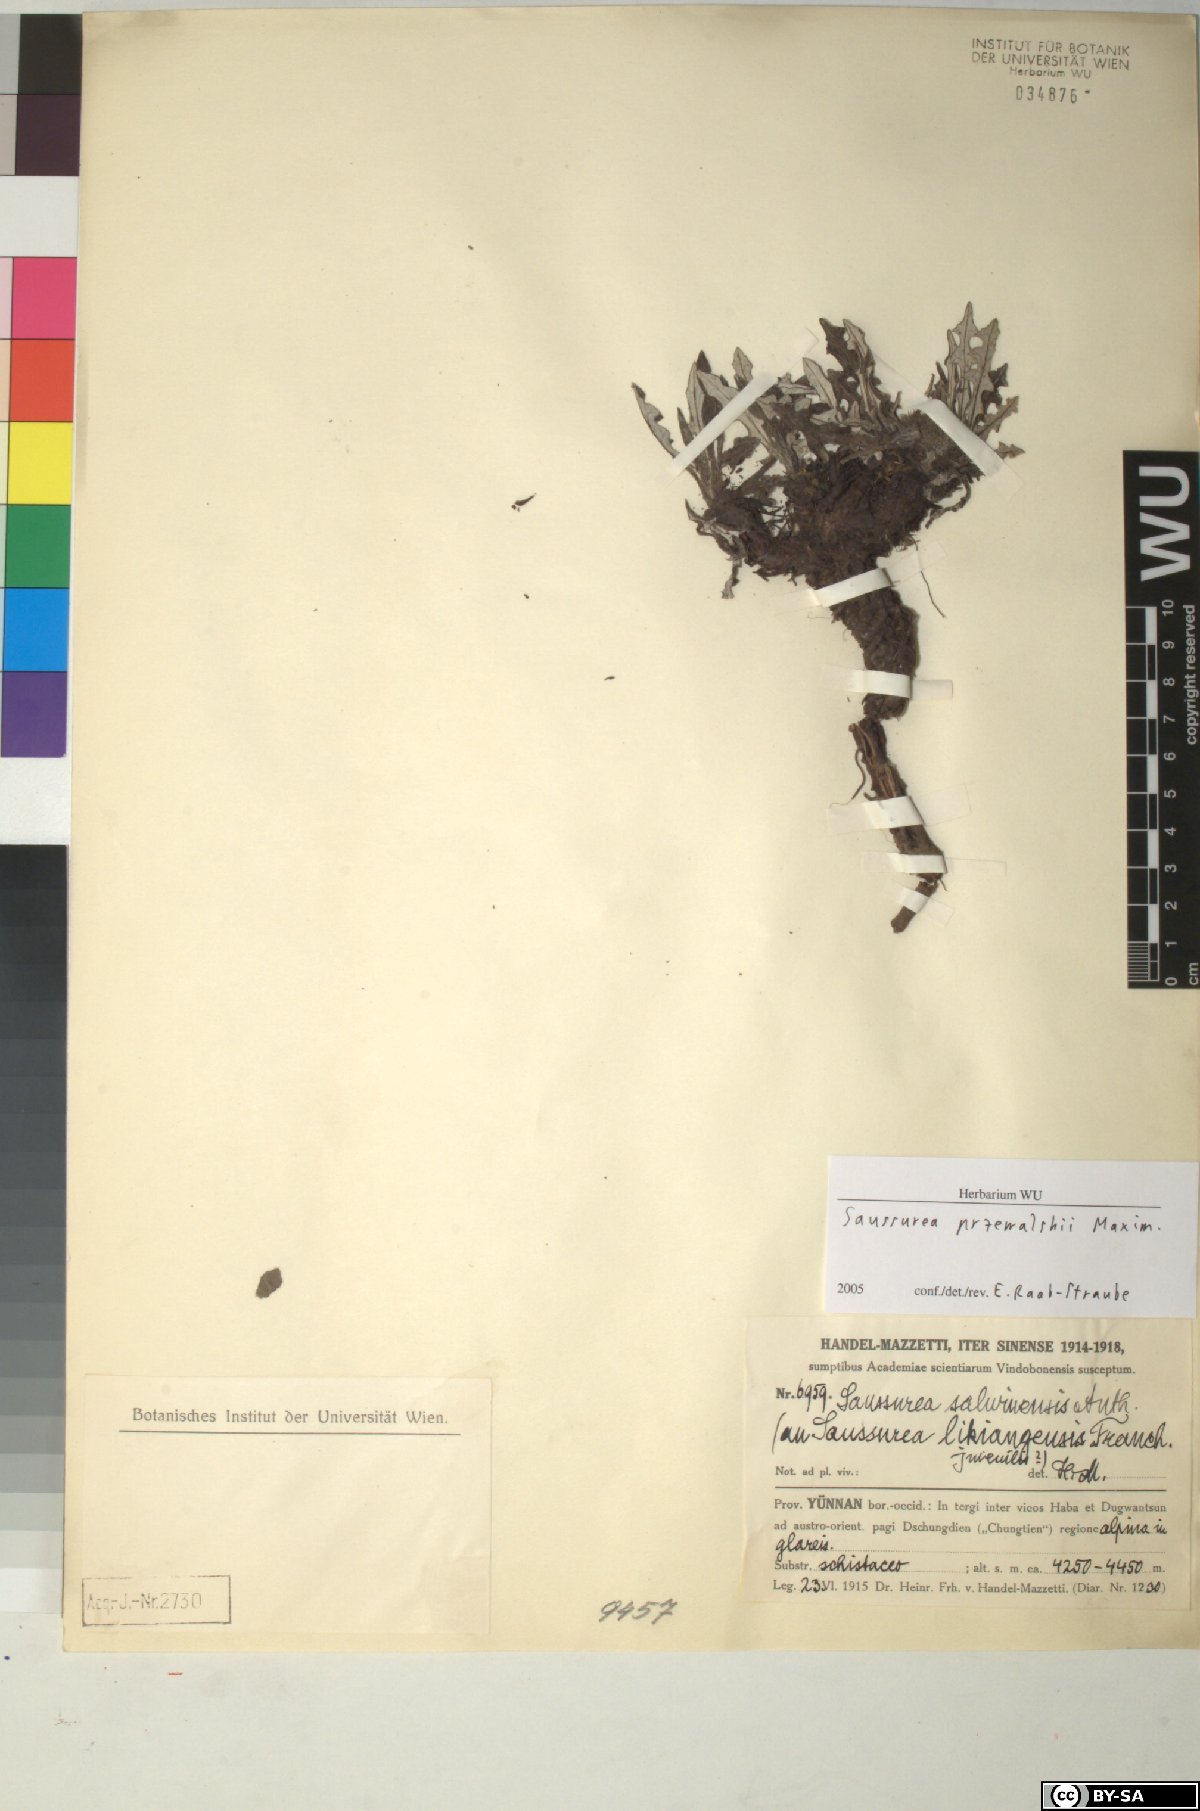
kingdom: Plantae
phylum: Tracheophyta
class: Magnoliopsida
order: Asterales
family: Asteraceae
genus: Saussurea
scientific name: Saussurea przewalskii
